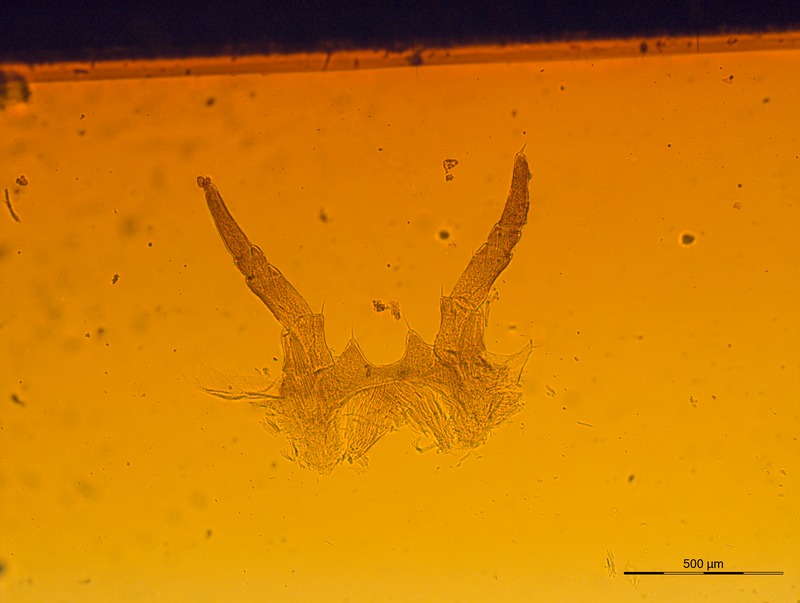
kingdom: Animalia
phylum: Arthropoda
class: Diplopoda
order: Glomerida
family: Glomeridae
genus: Glomeris
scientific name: Glomeris strasseri
